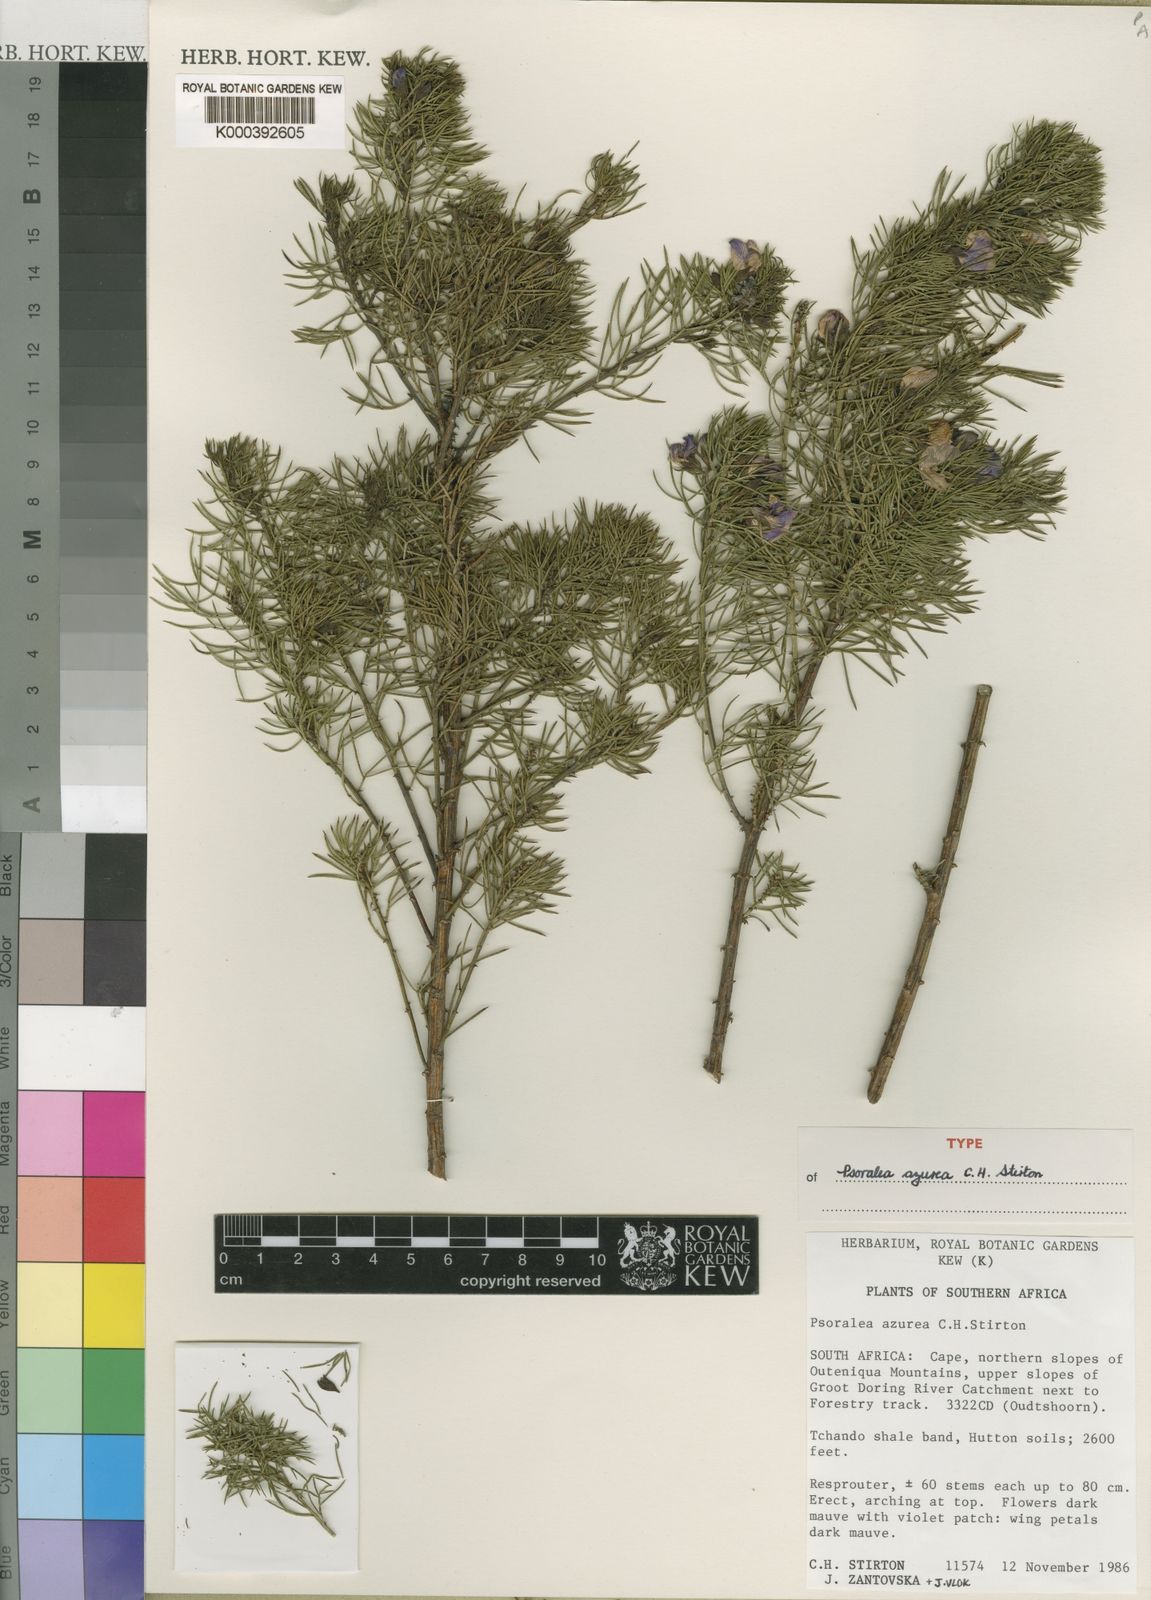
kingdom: Plantae
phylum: Tracheophyta
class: Magnoliopsida
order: Fabales
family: Fabaceae
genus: Psoralea
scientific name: Psoralea
